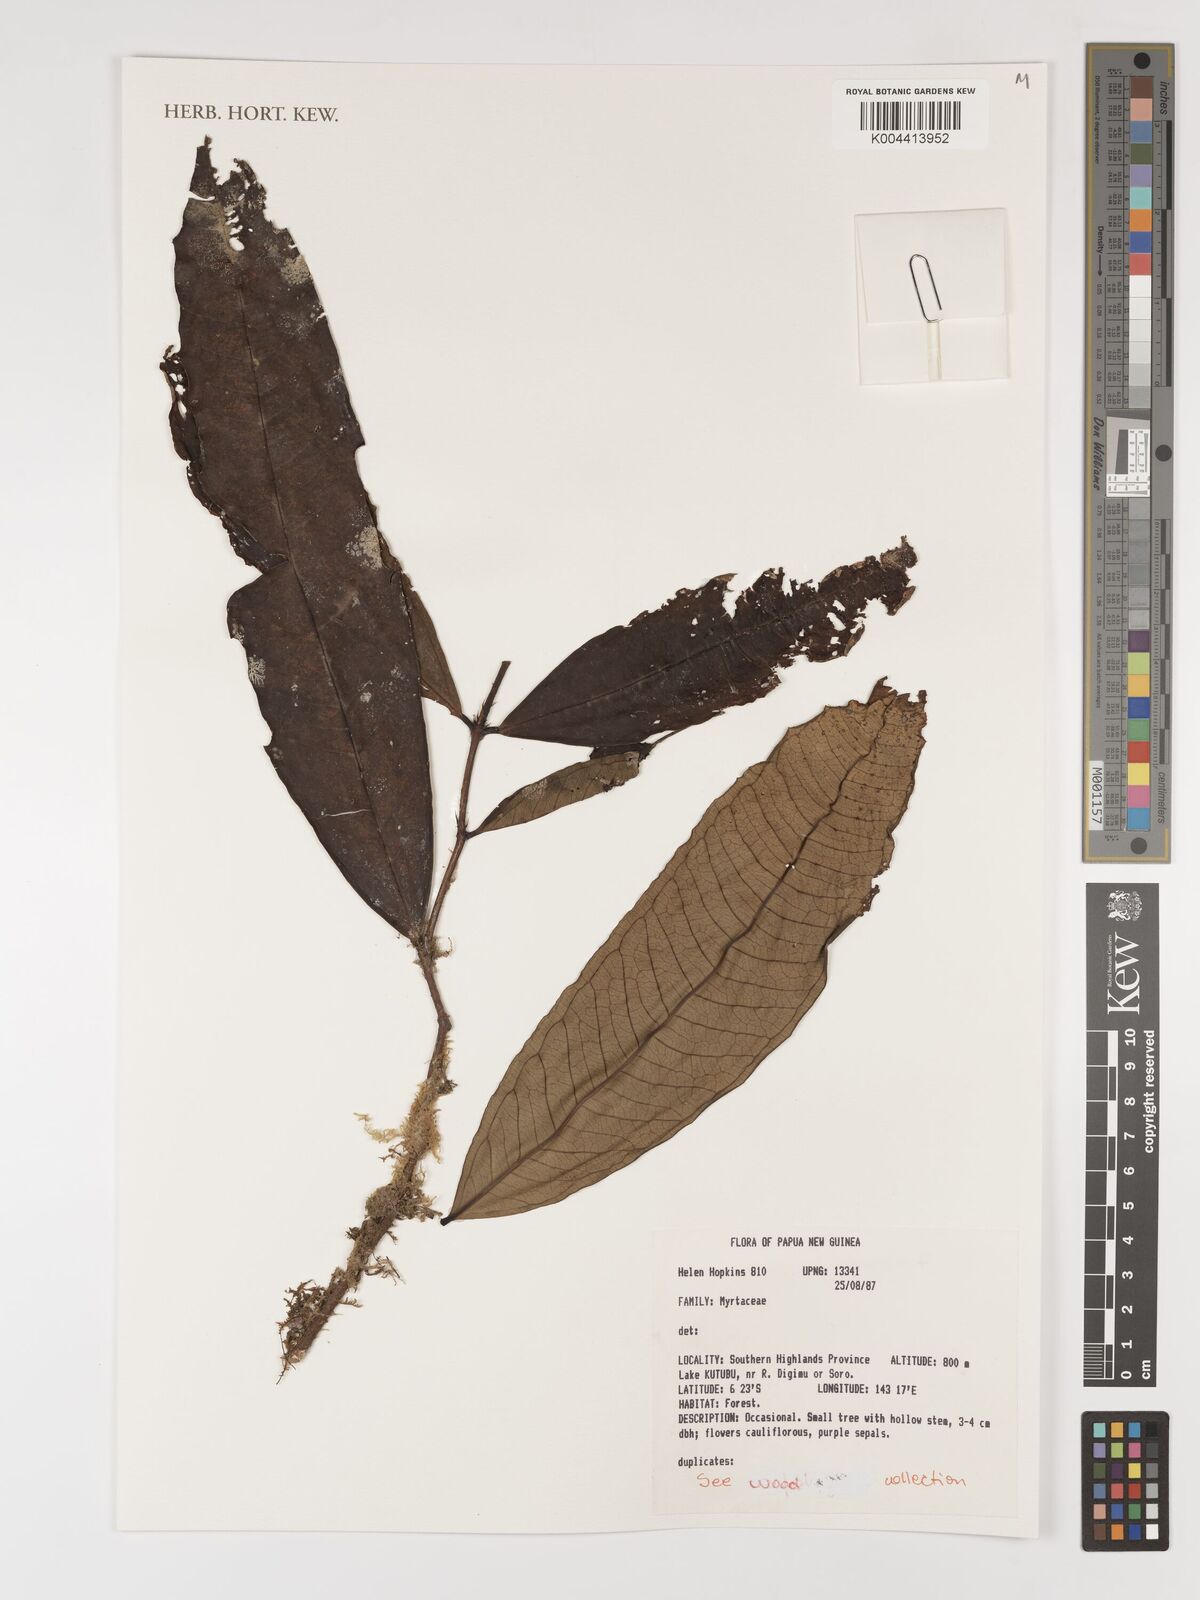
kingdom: Plantae
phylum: Tracheophyta
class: Magnoliopsida
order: Myrtales
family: Myrtaceae
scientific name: Myrtaceae
